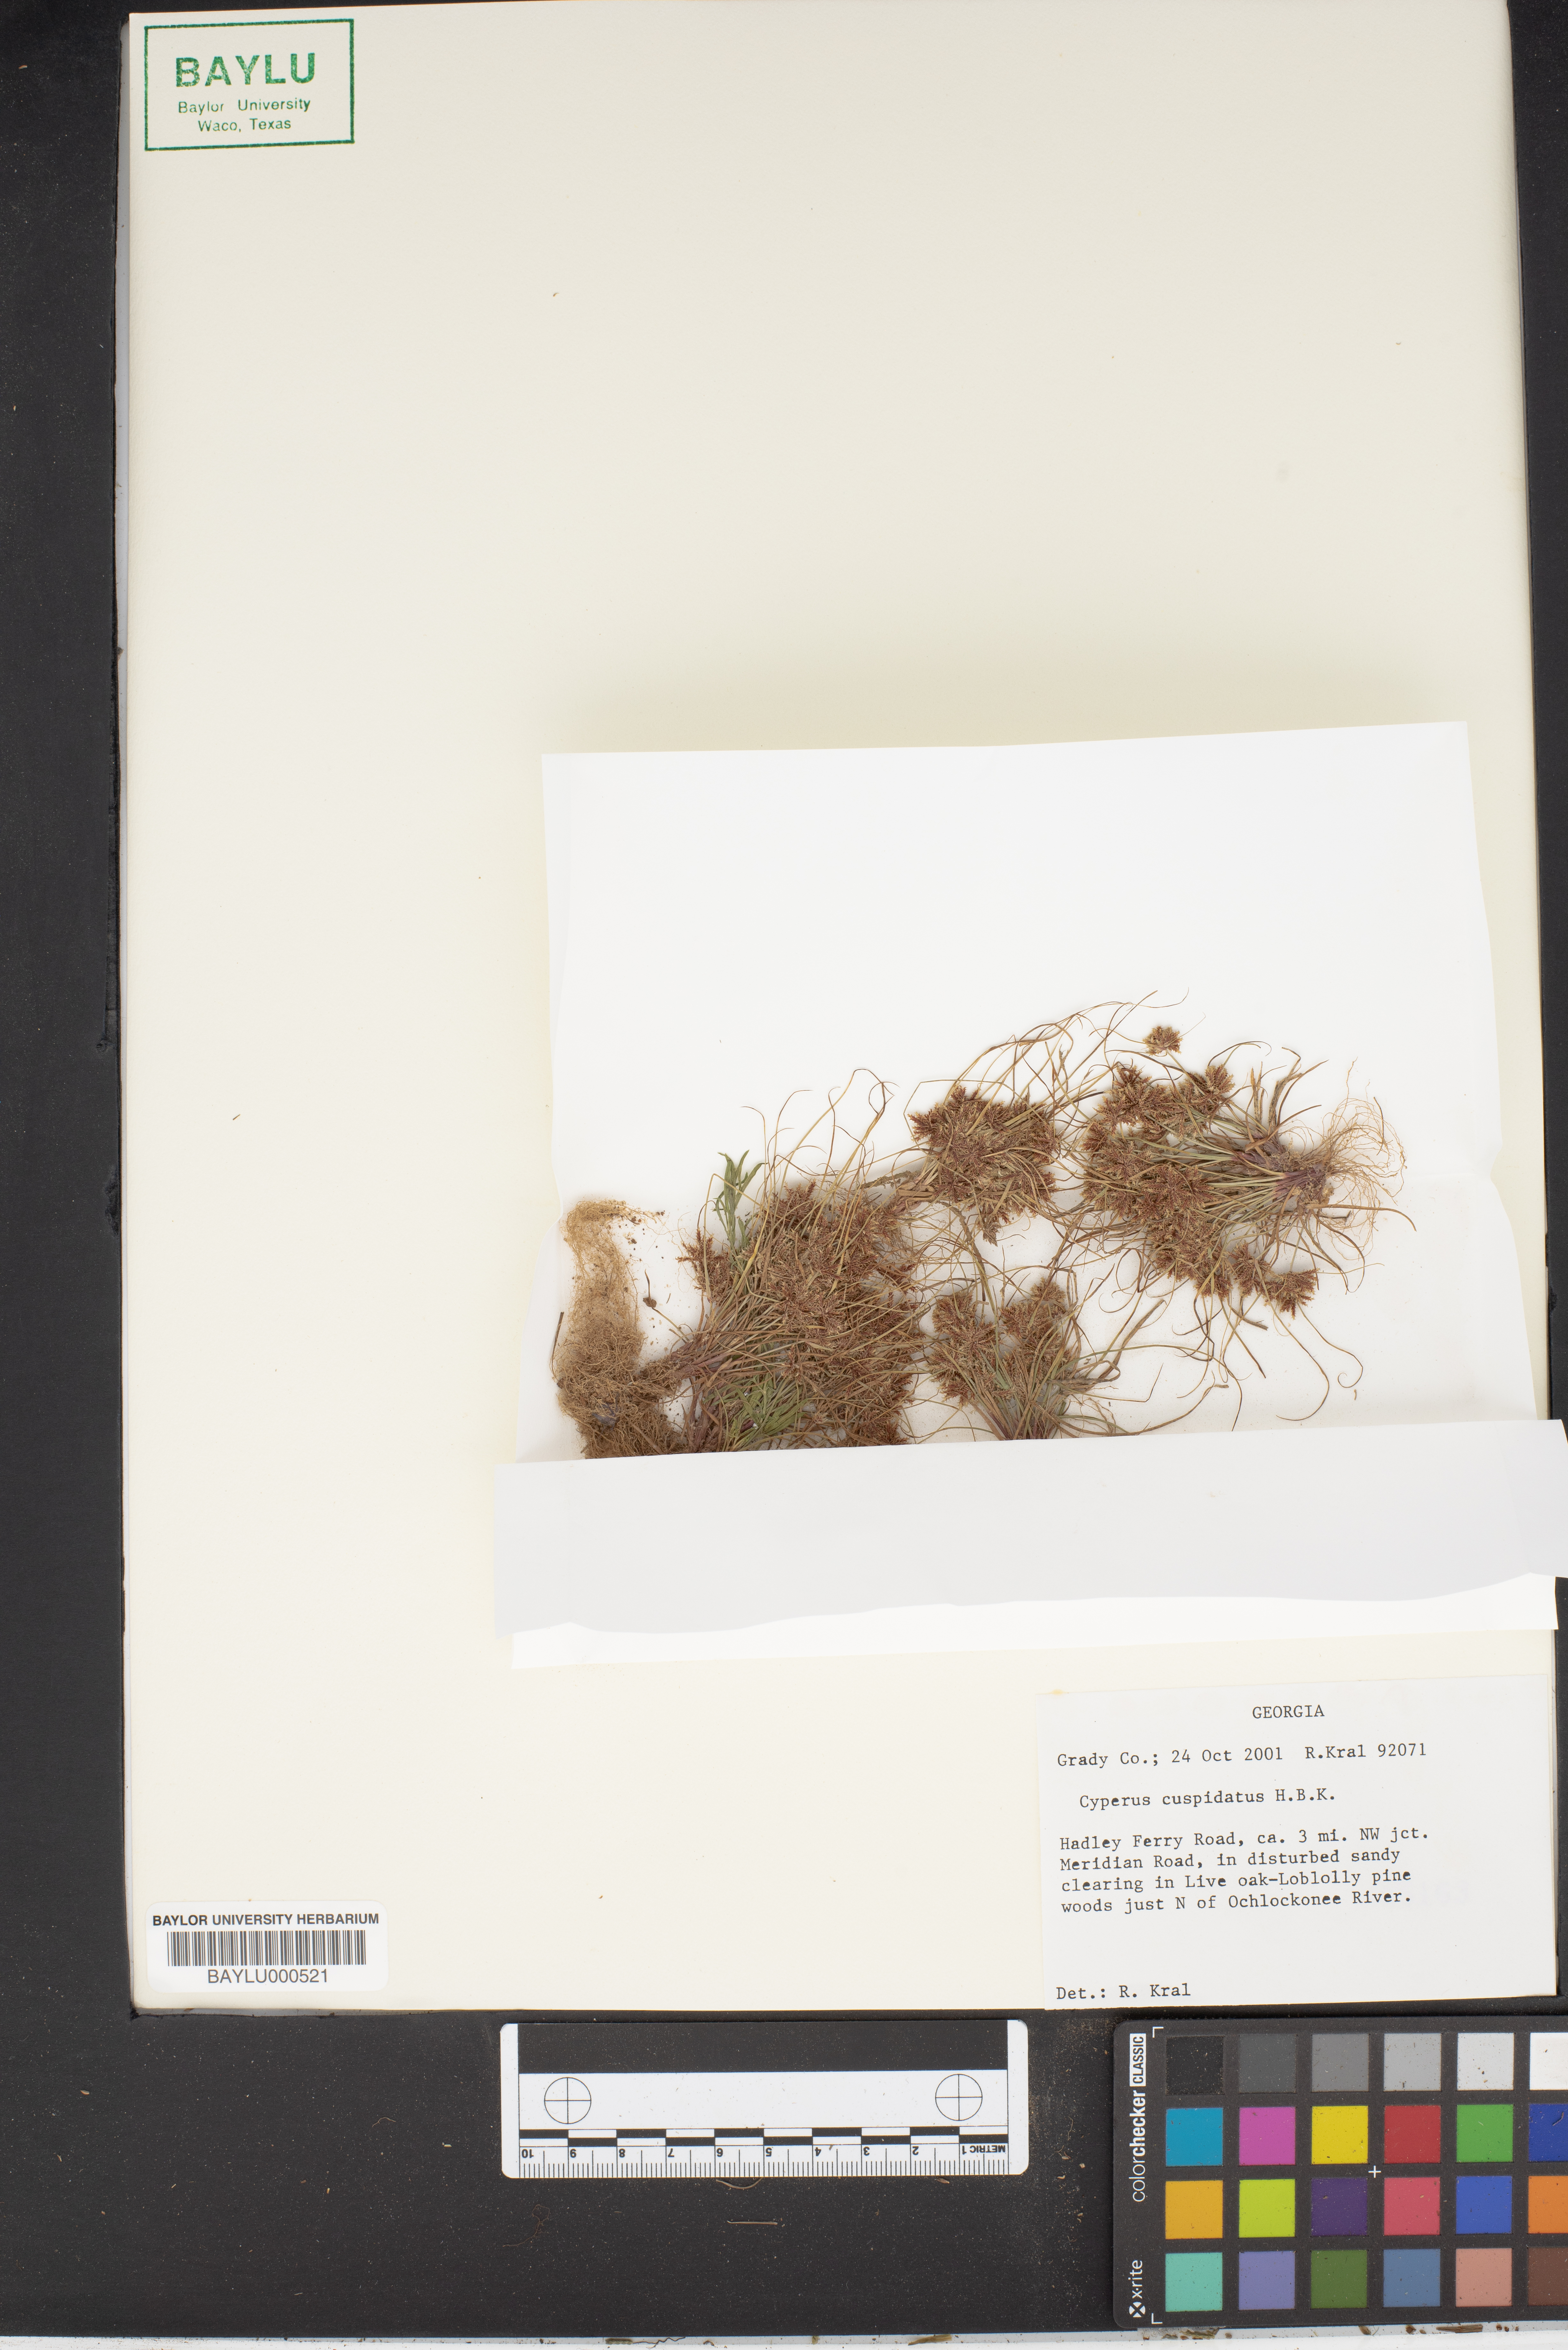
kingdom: Plantae
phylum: Tracheophyta
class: Liliopsida
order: Poales
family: Cyperaceae
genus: Cyperus
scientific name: Cyperus cuspidatus
